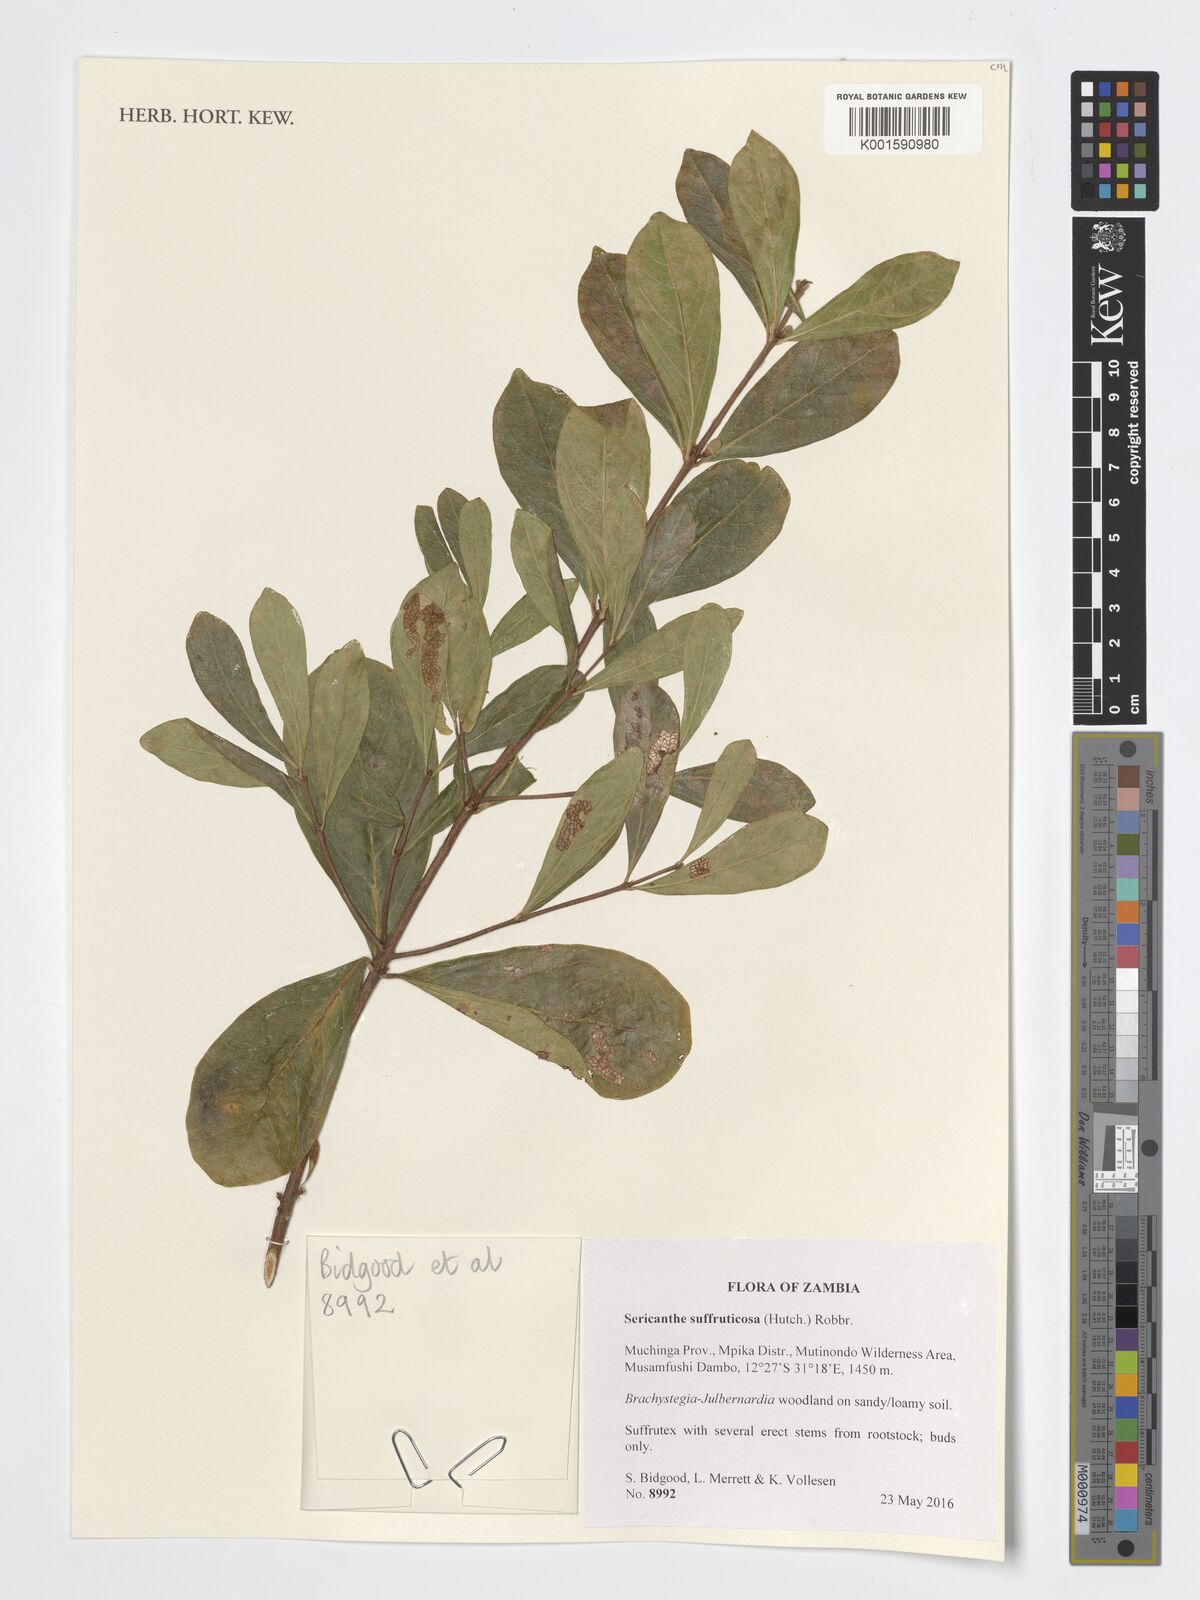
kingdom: Plantae
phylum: Tracheophyta
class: Magnoliopsida
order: Gentianales
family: Rubiaceae
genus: Sericanthe
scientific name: Sericanthe suffruticosa
